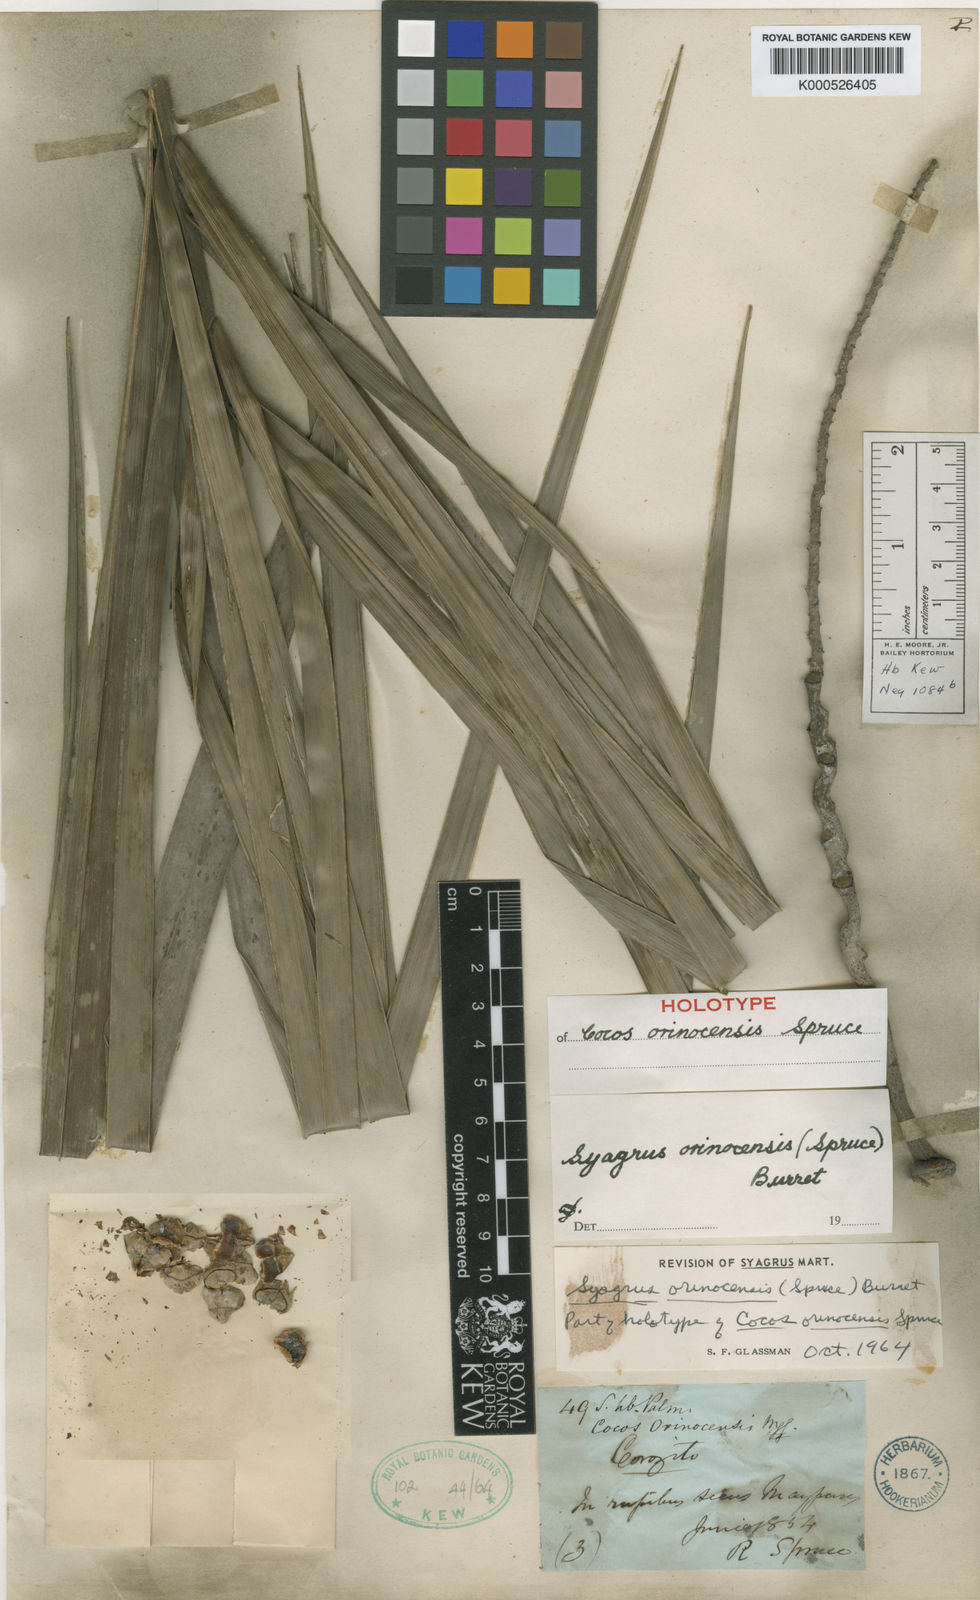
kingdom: Plantae
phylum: Tracheophyta
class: Liliopsida
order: Arecales
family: Arecaceae
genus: Syagrus
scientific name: Syagrus orinocensis
